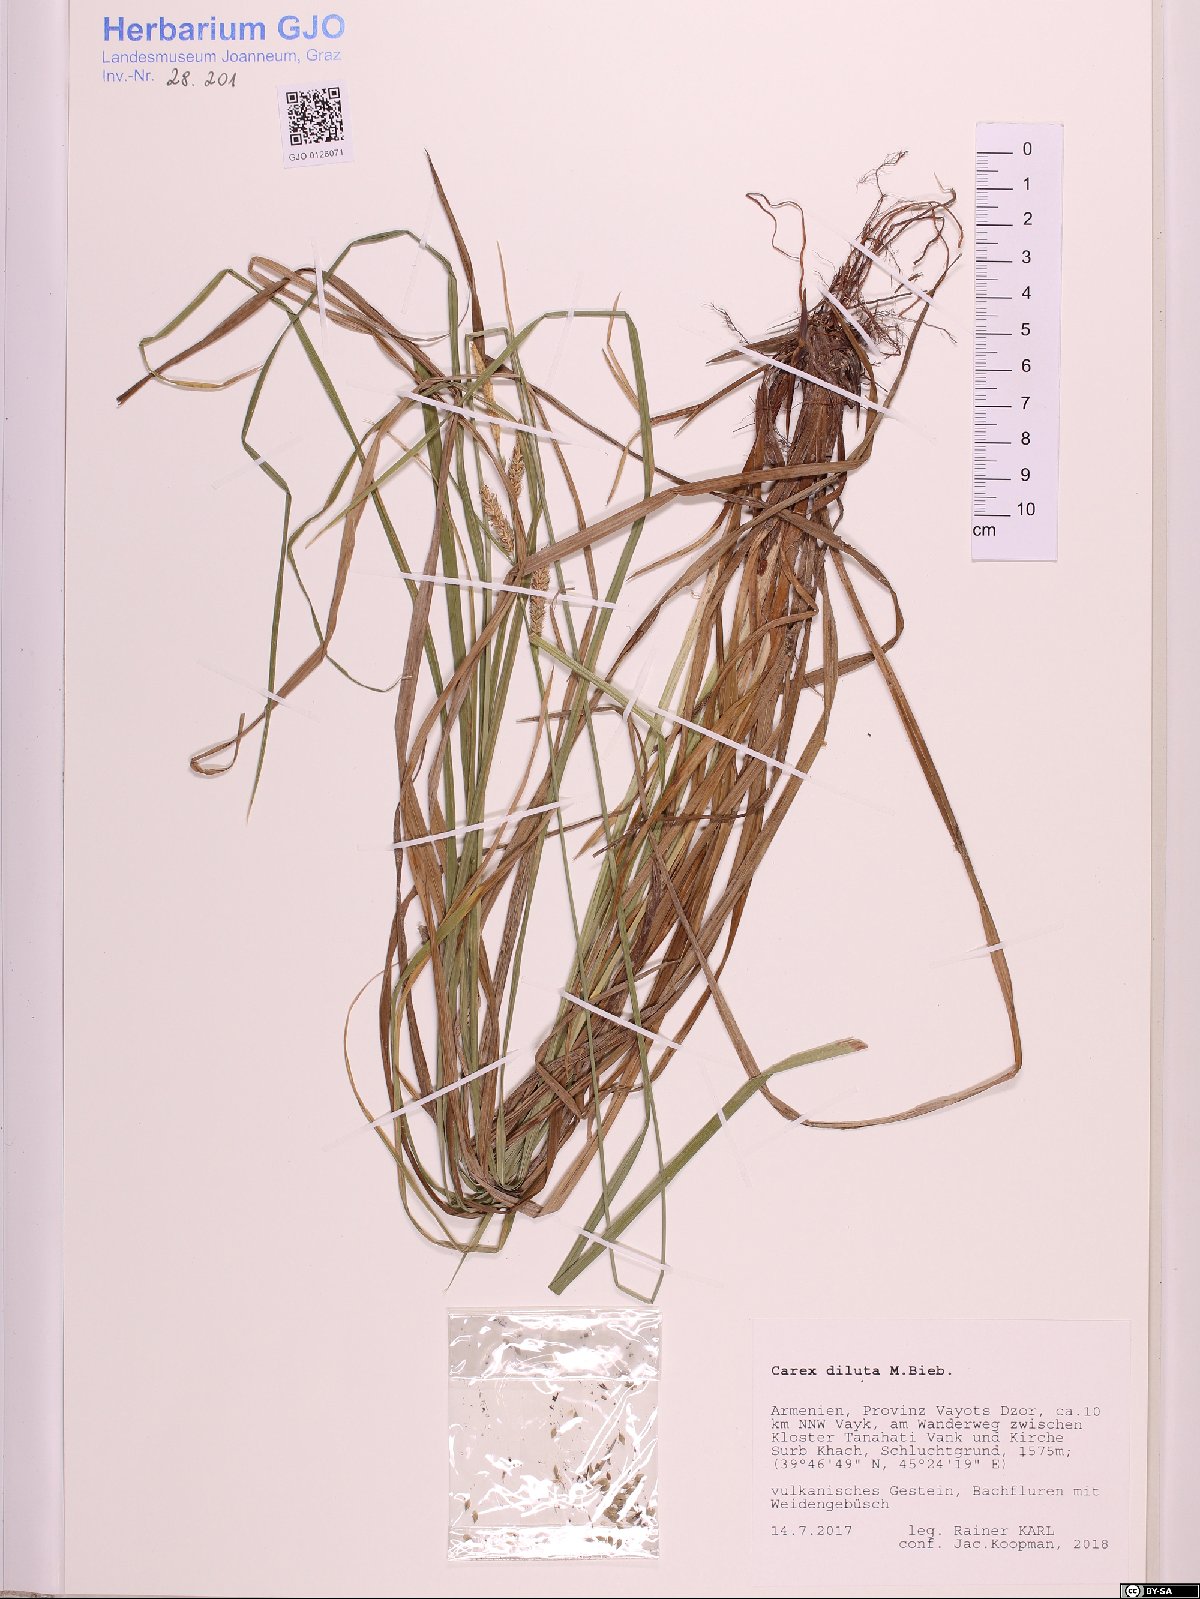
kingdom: Plantae
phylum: Tracheophyta
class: Liliopsida
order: Poales
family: Cyperaceae
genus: Carex
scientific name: Carex diluta
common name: Sedge
